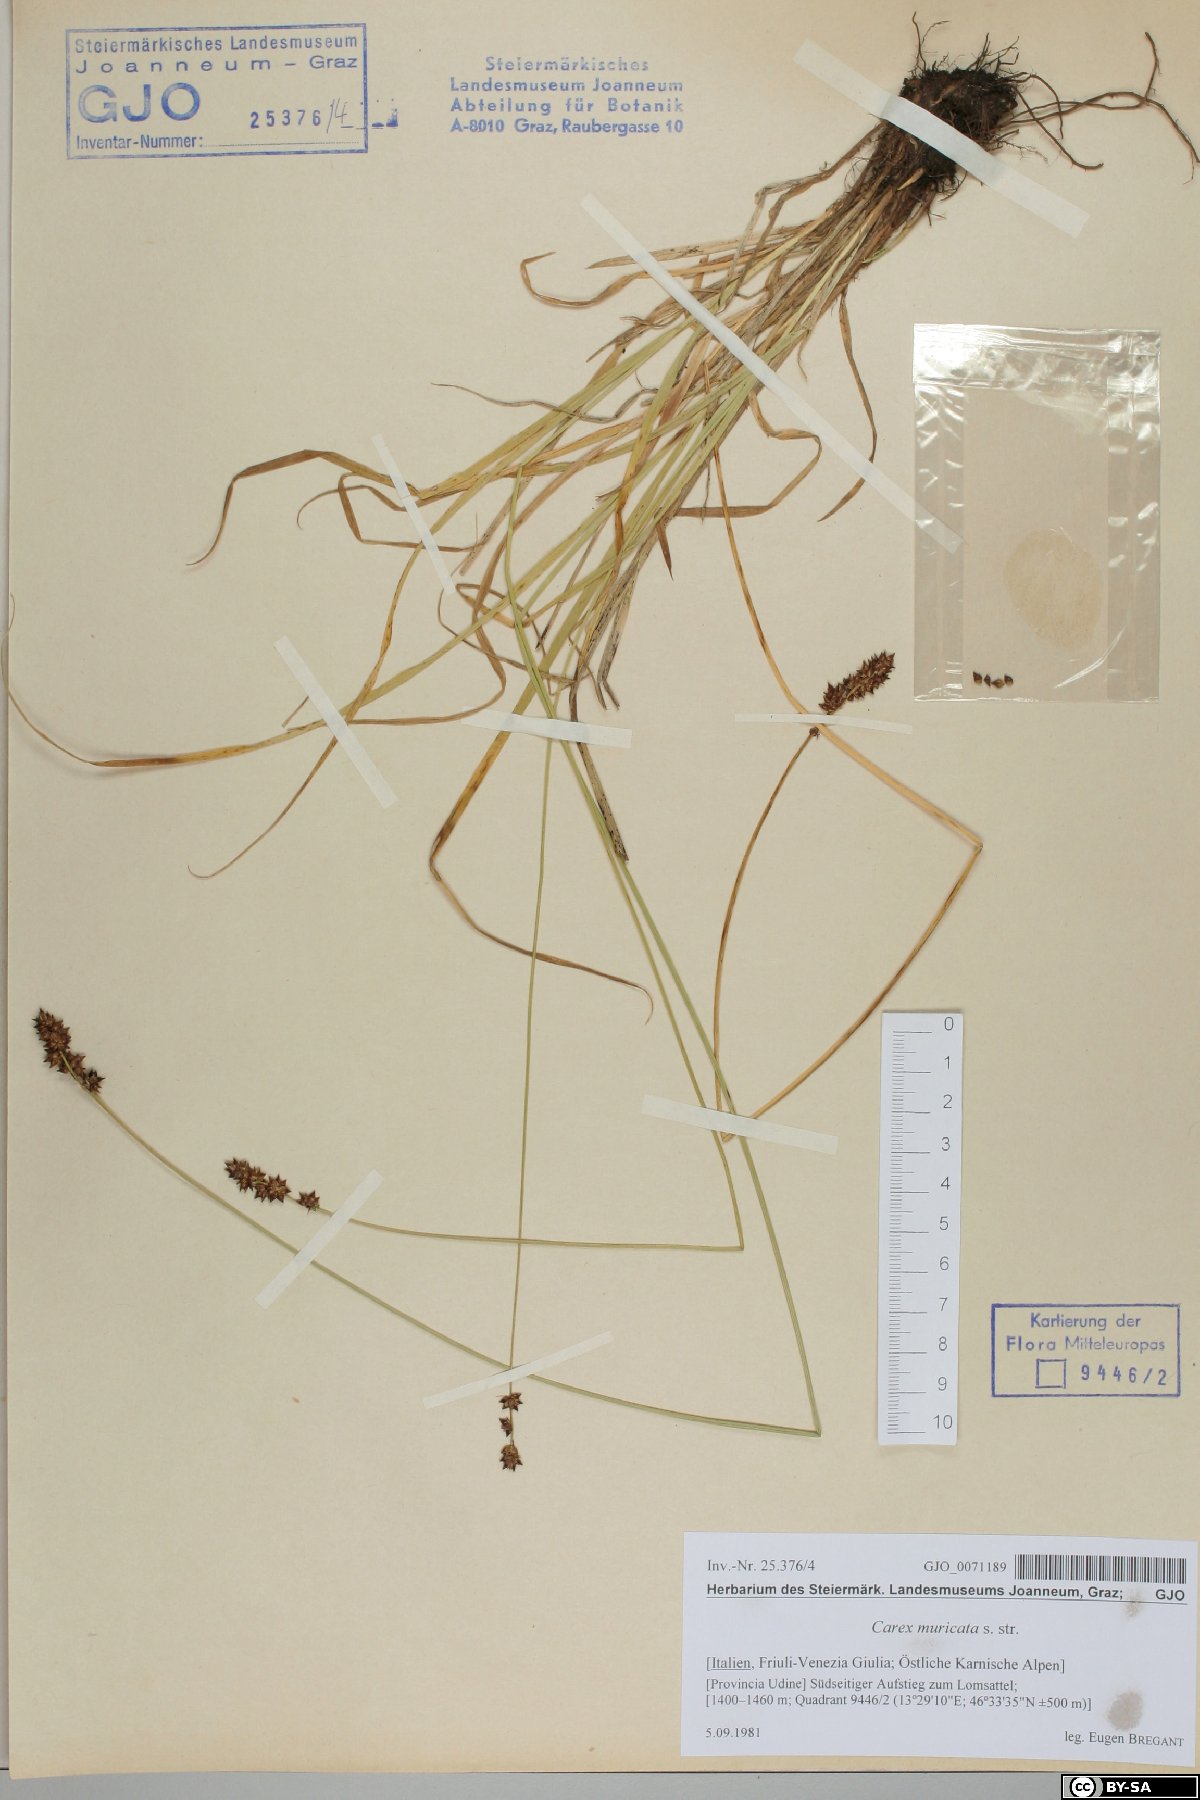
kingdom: Plantae
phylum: Tracheophyta
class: Liliopsida
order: Poales
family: Cyperaceae
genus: Carex
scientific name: Carex muricata
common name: Rough sedge
